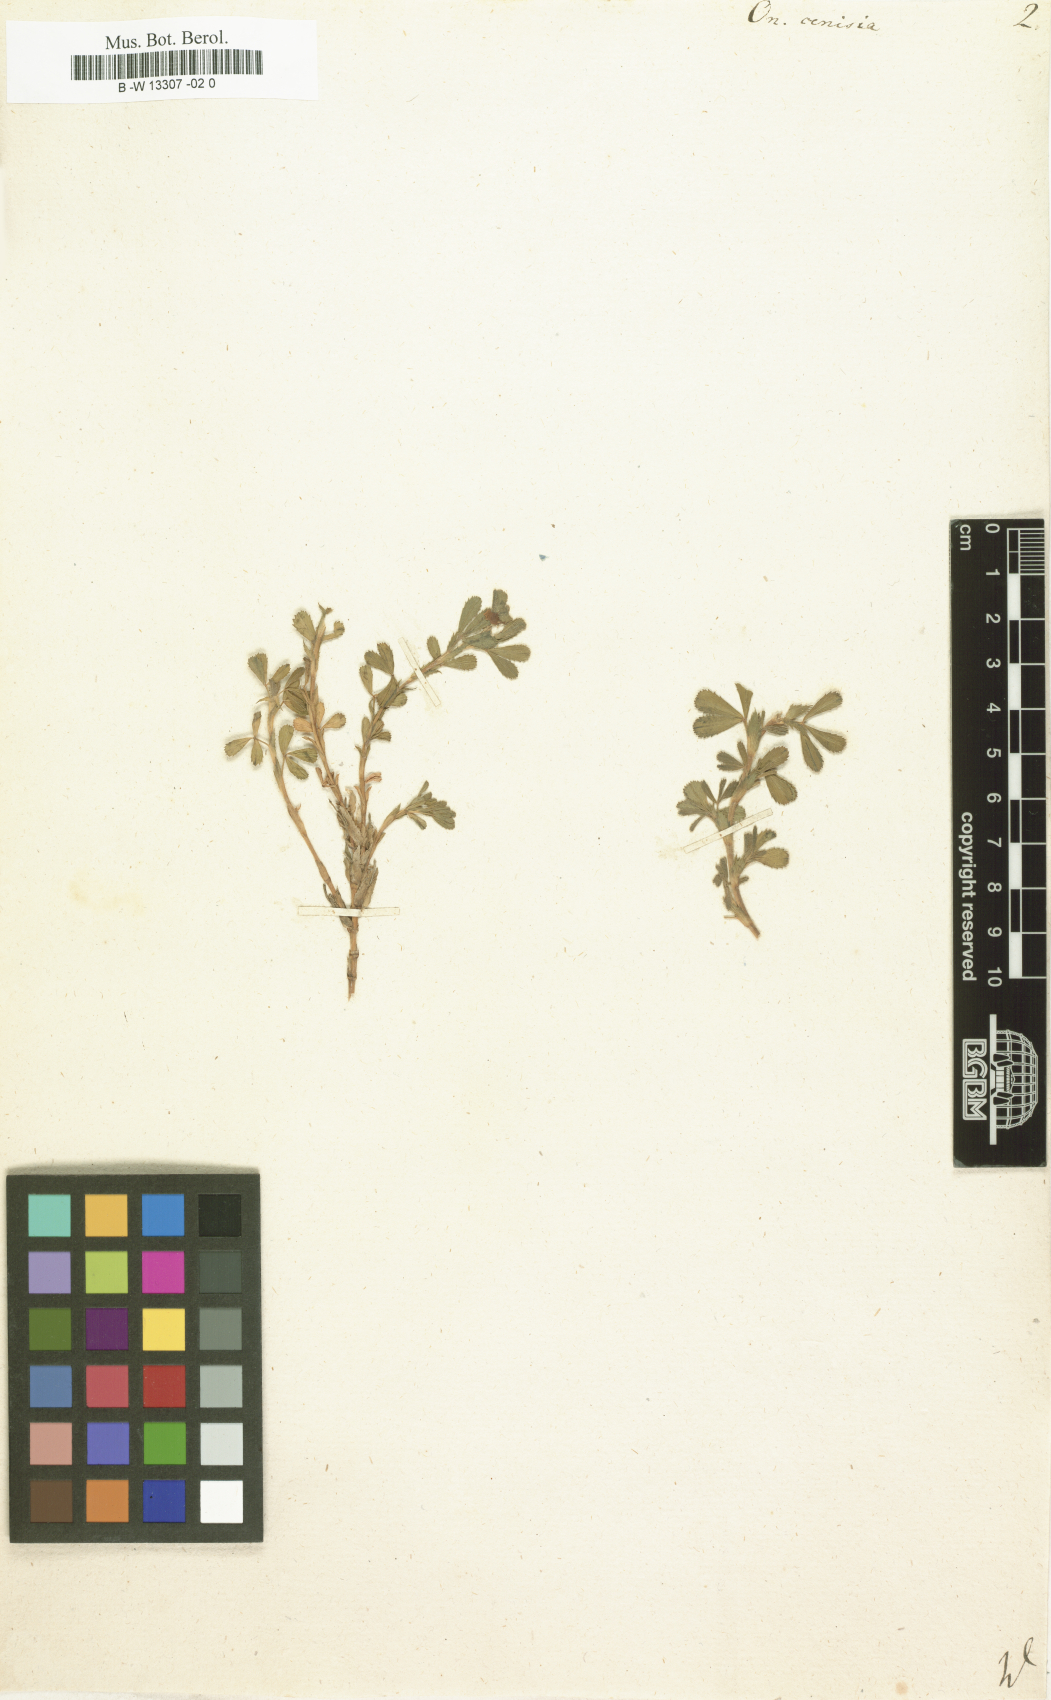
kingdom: Plantae
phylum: Tracheophyta
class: Magnoliopsida
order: Fabales
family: Fabaceae
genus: Ononis
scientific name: Ononis cristata
